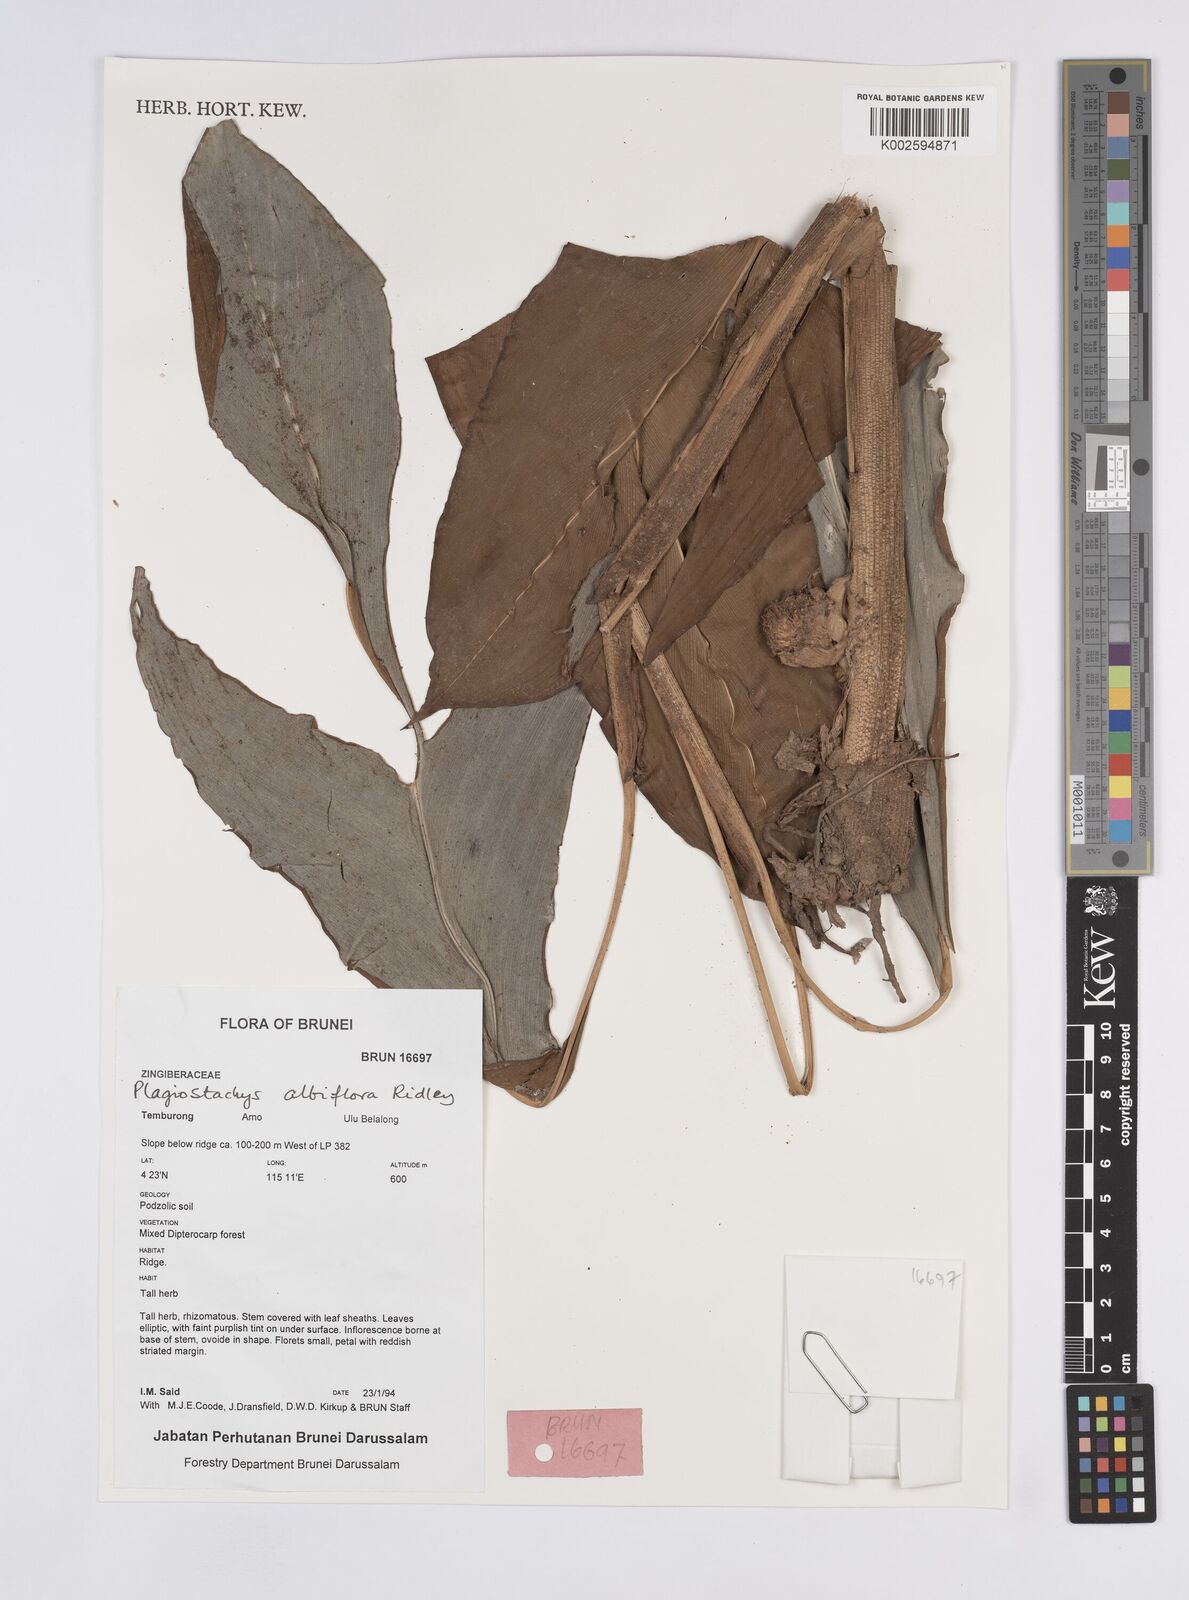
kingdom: Plantae
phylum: Tracheophyta
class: Liliopsida
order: Zingiberales
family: Zingiberaceae
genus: Plagiostachys
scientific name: Plagiostachys albiflora
